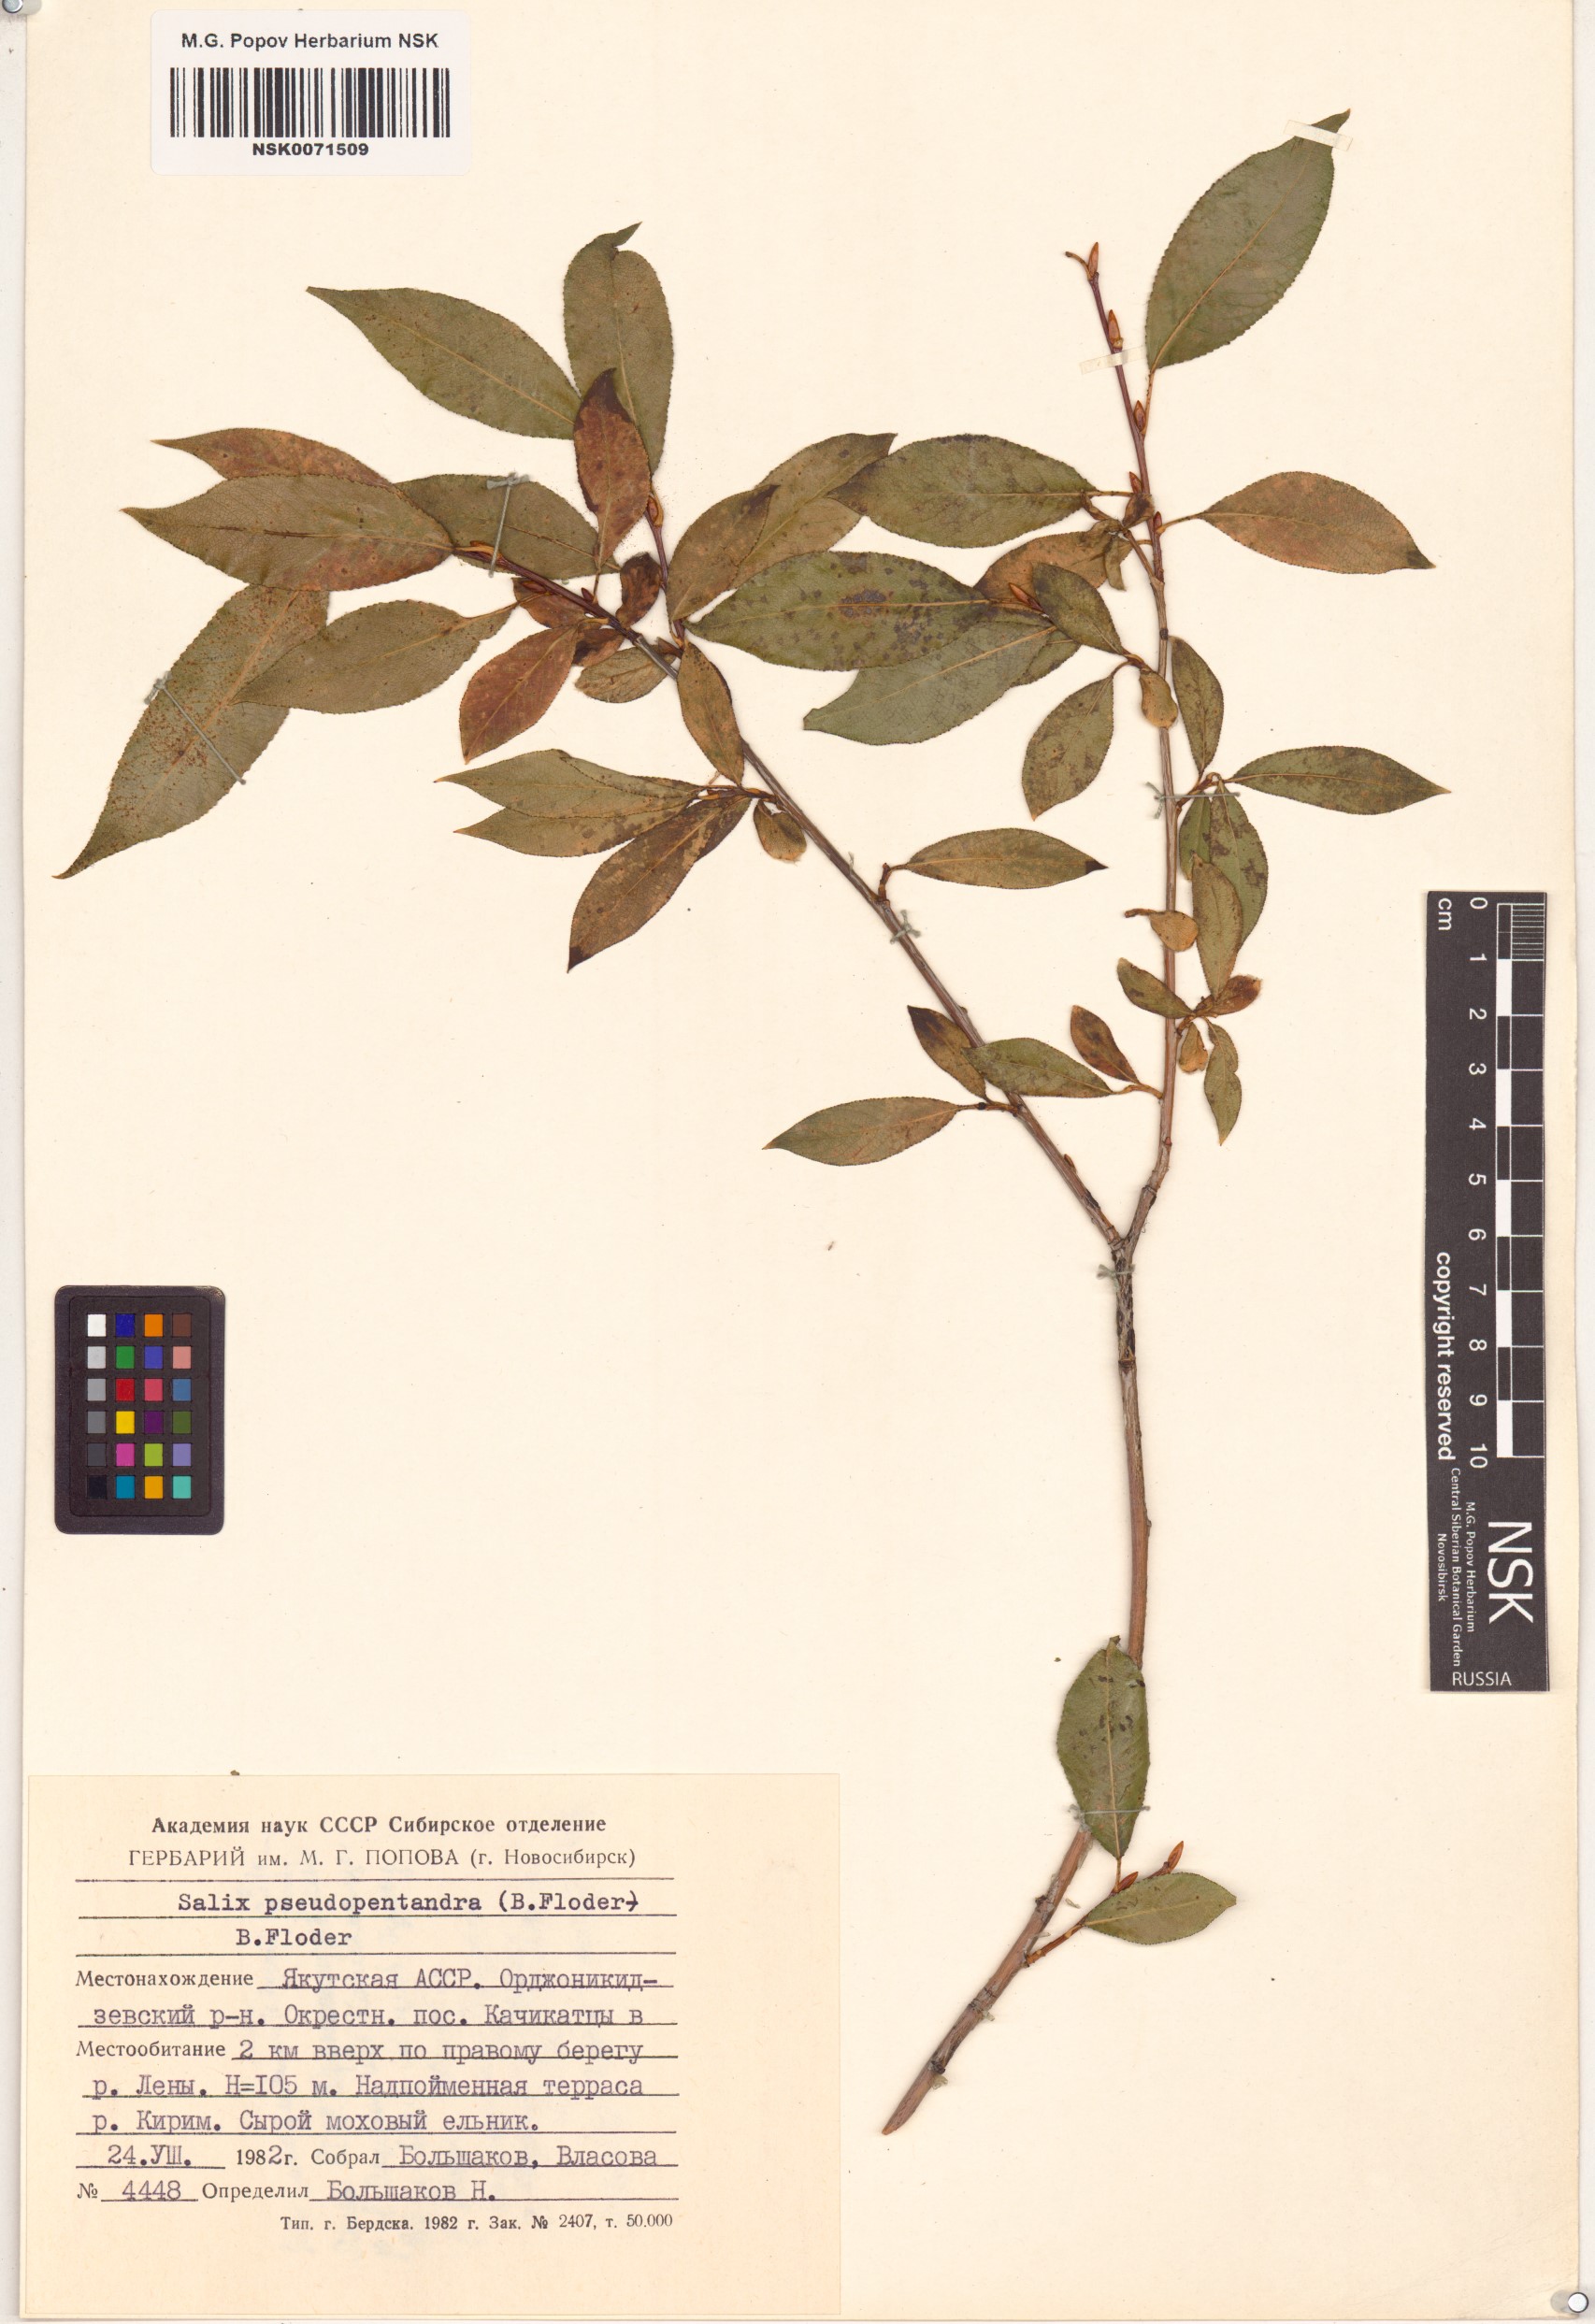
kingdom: Plantae
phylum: Tracheophyta
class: Magnoliopsida
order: Malpighiales
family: Salicaceae
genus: Salix
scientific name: Salix pseudopentandra
